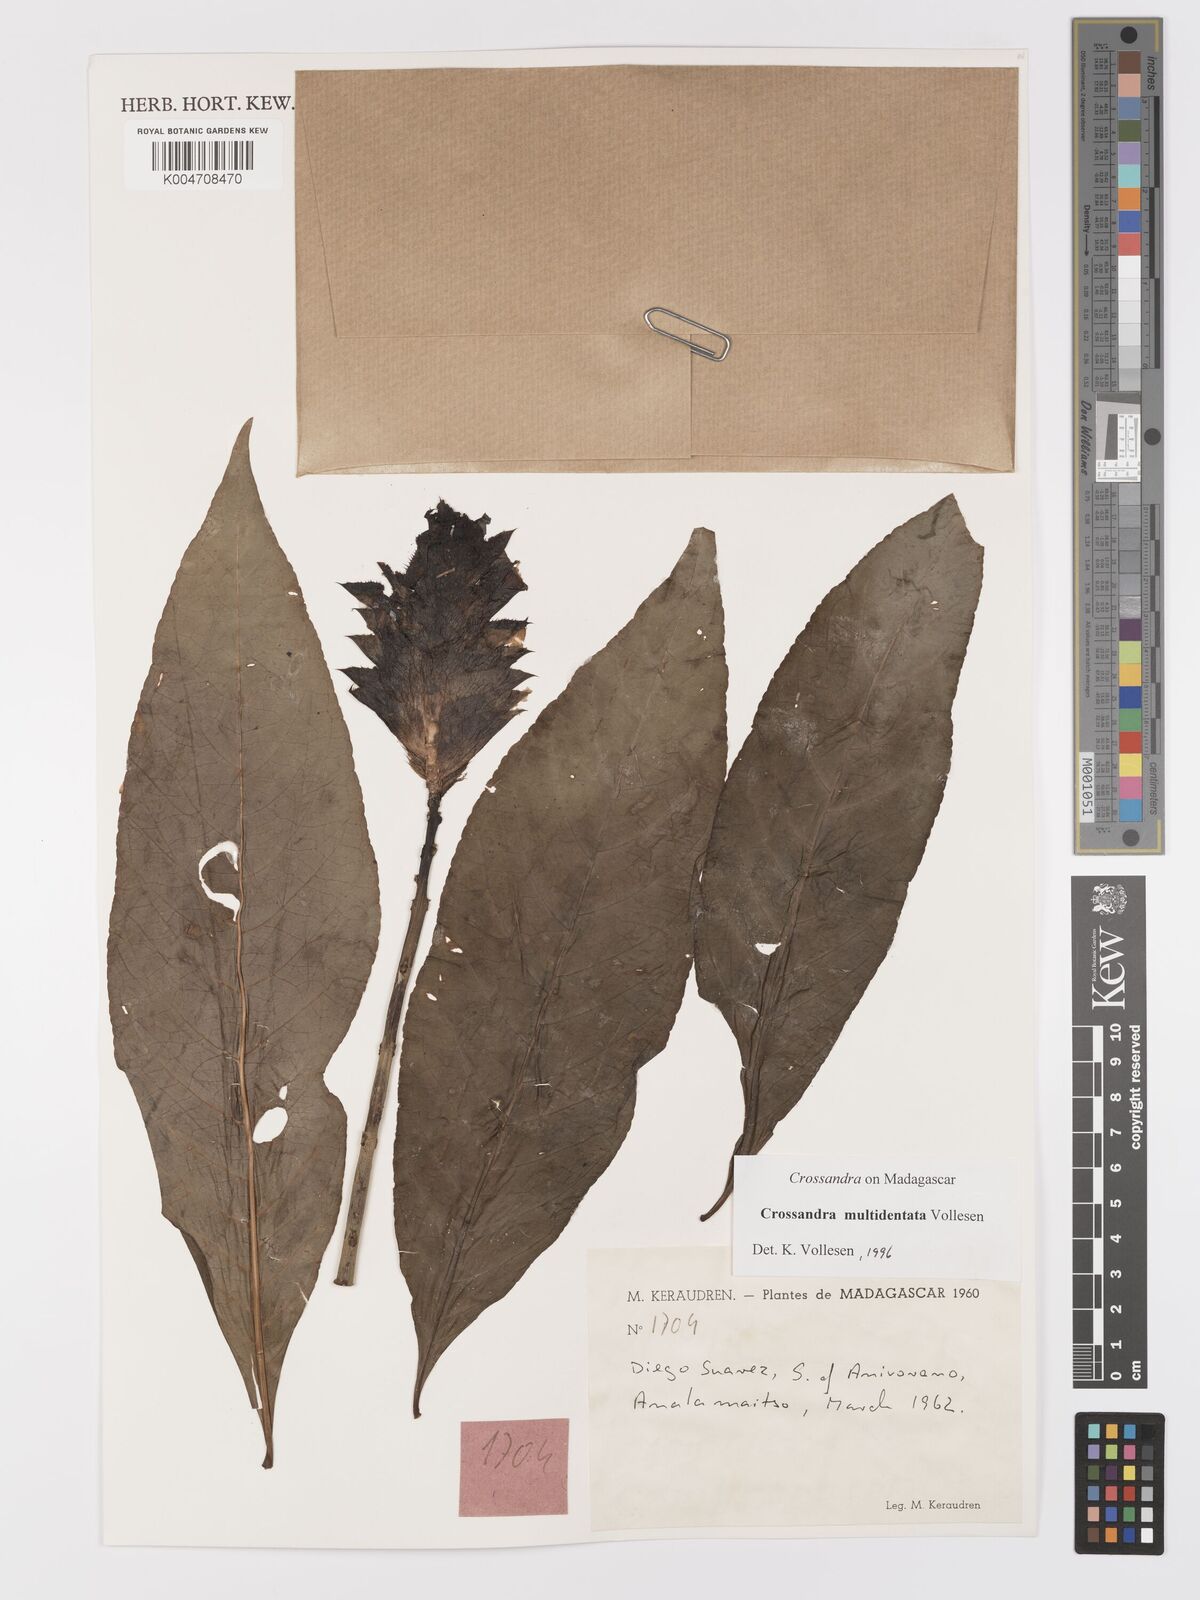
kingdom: Plantae
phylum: Tracheophyta
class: Magnoliopsida
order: Lamiales
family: Acanthaceae
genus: Crossandra
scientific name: Crossandra multidentata
